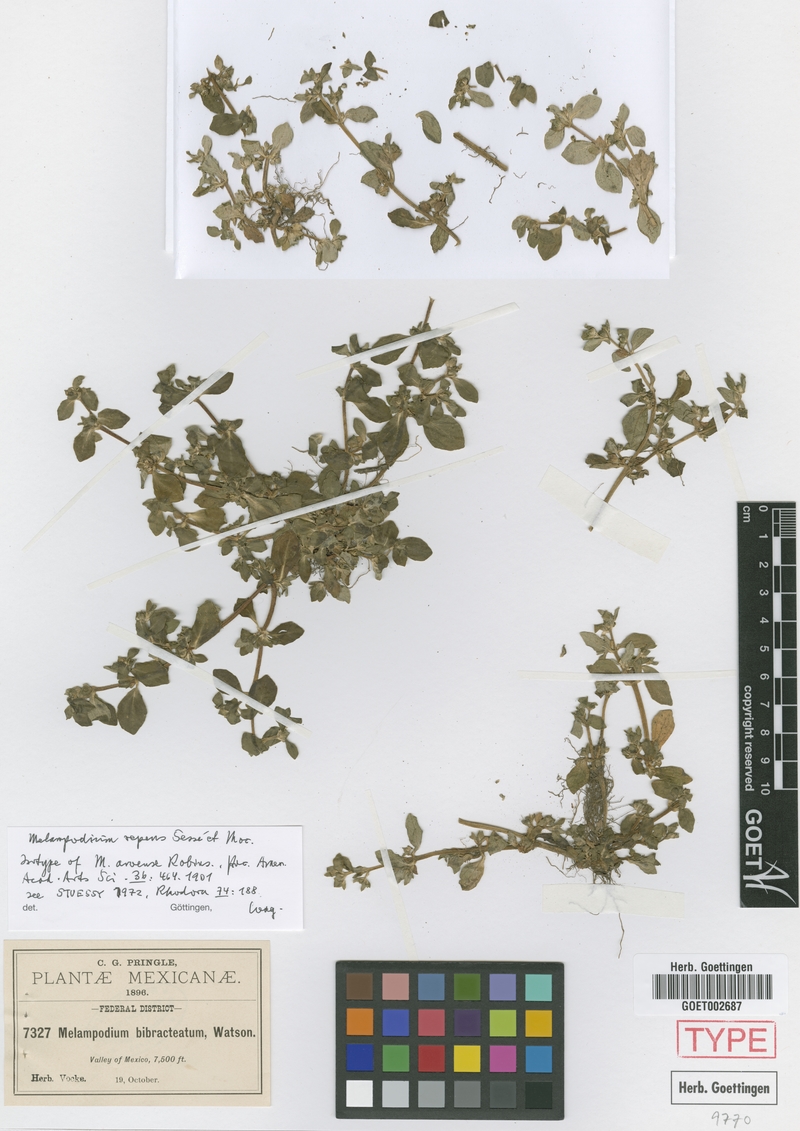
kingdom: Plantae
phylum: Tracheophyta
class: Magnoliopsida
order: Asterales
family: Asteraceae
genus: Melampodium
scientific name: Melampodium repens
